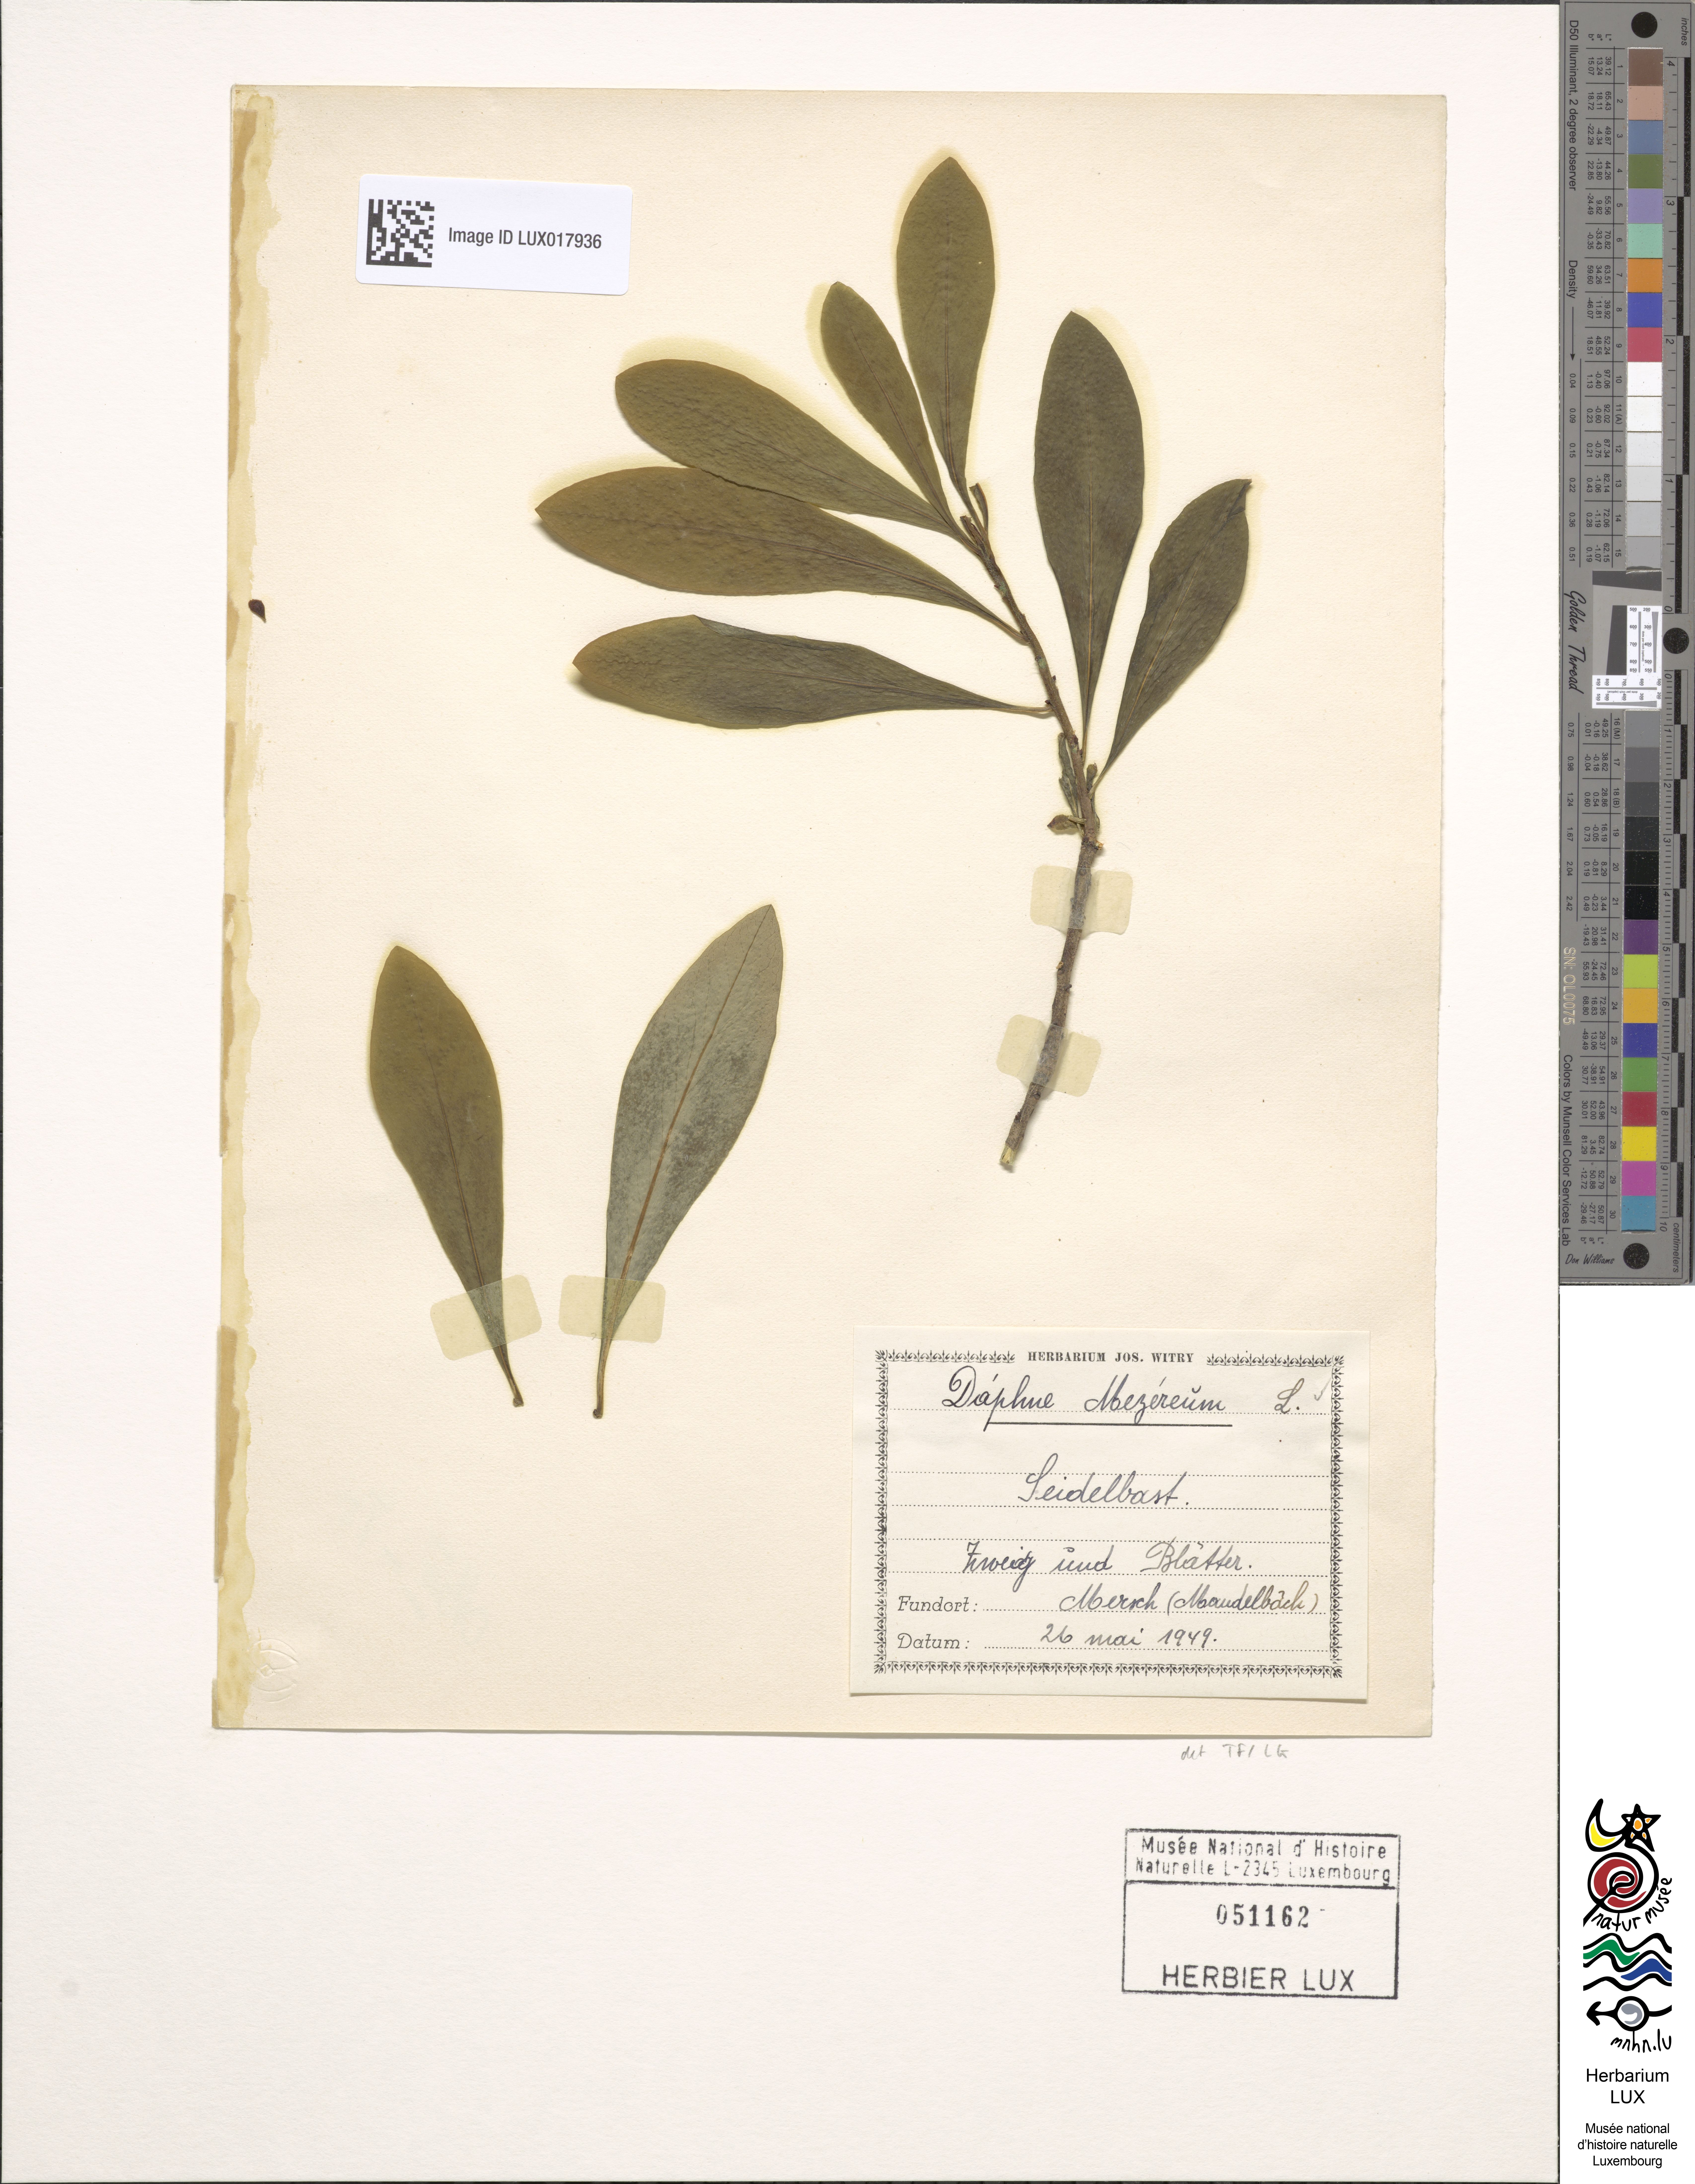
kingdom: Plantae
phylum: Tracheophyta
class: Magnoliopsida
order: Malvales
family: Thymelaeaceae
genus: Daphne
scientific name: Daphne mezereum
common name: Mezereon
